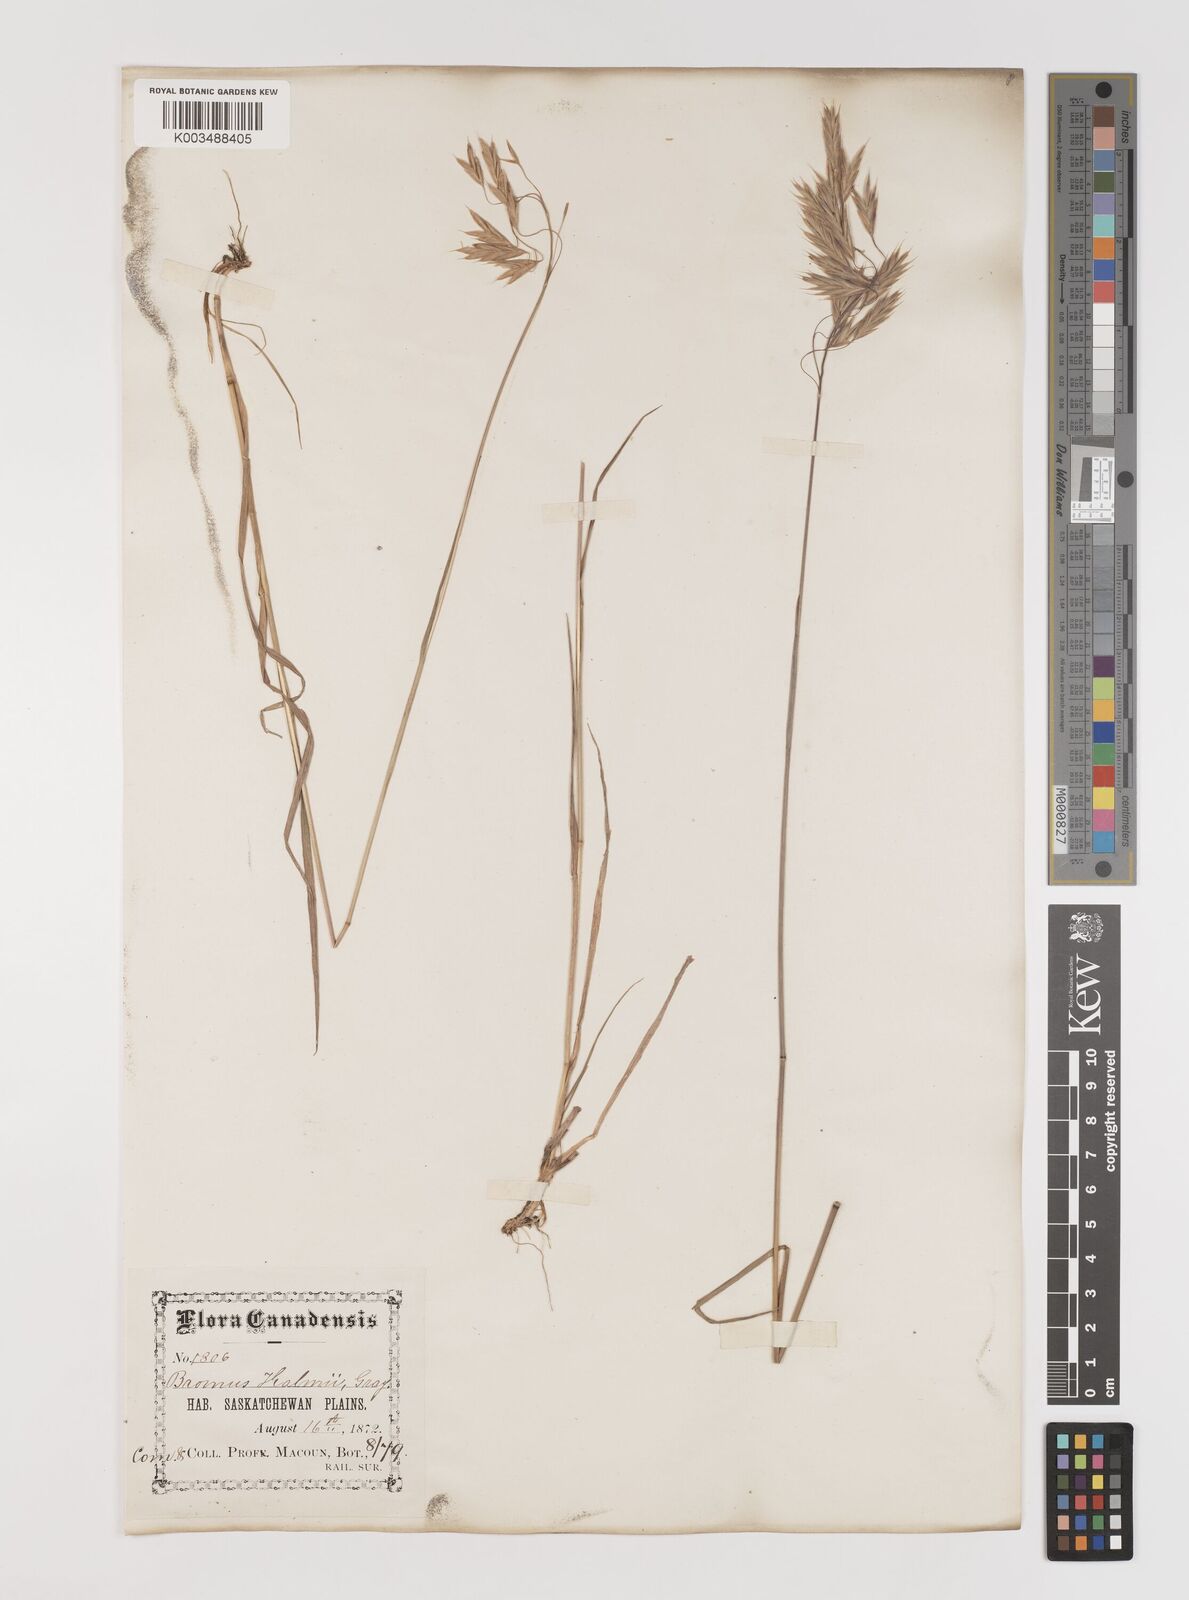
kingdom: Plantae
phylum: Tracheophyta
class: Liliopsida
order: Poales
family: Poaceae
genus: Bromus
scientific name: Bromus ciliatus
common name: Fringe brome
